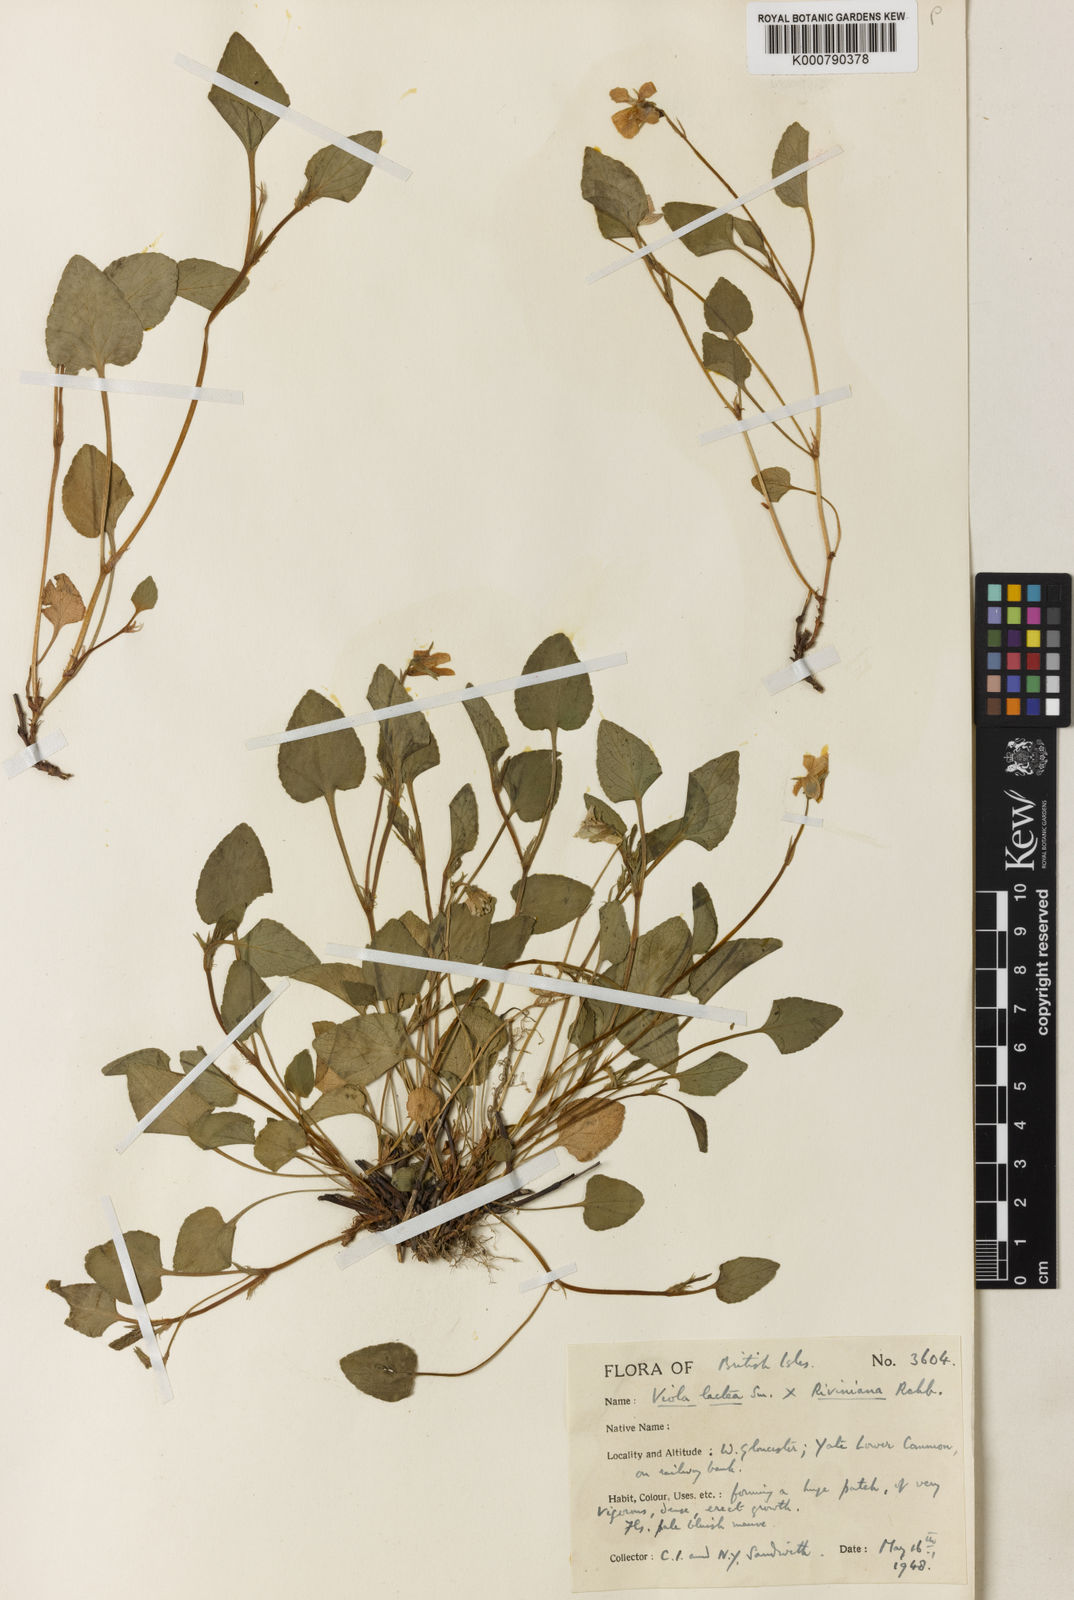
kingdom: Plantae
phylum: Tracheophyta
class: Magnoliopsida
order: Malpighiales
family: Violaceae
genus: Viola
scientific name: Viola lactea
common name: Pale dog-violet
